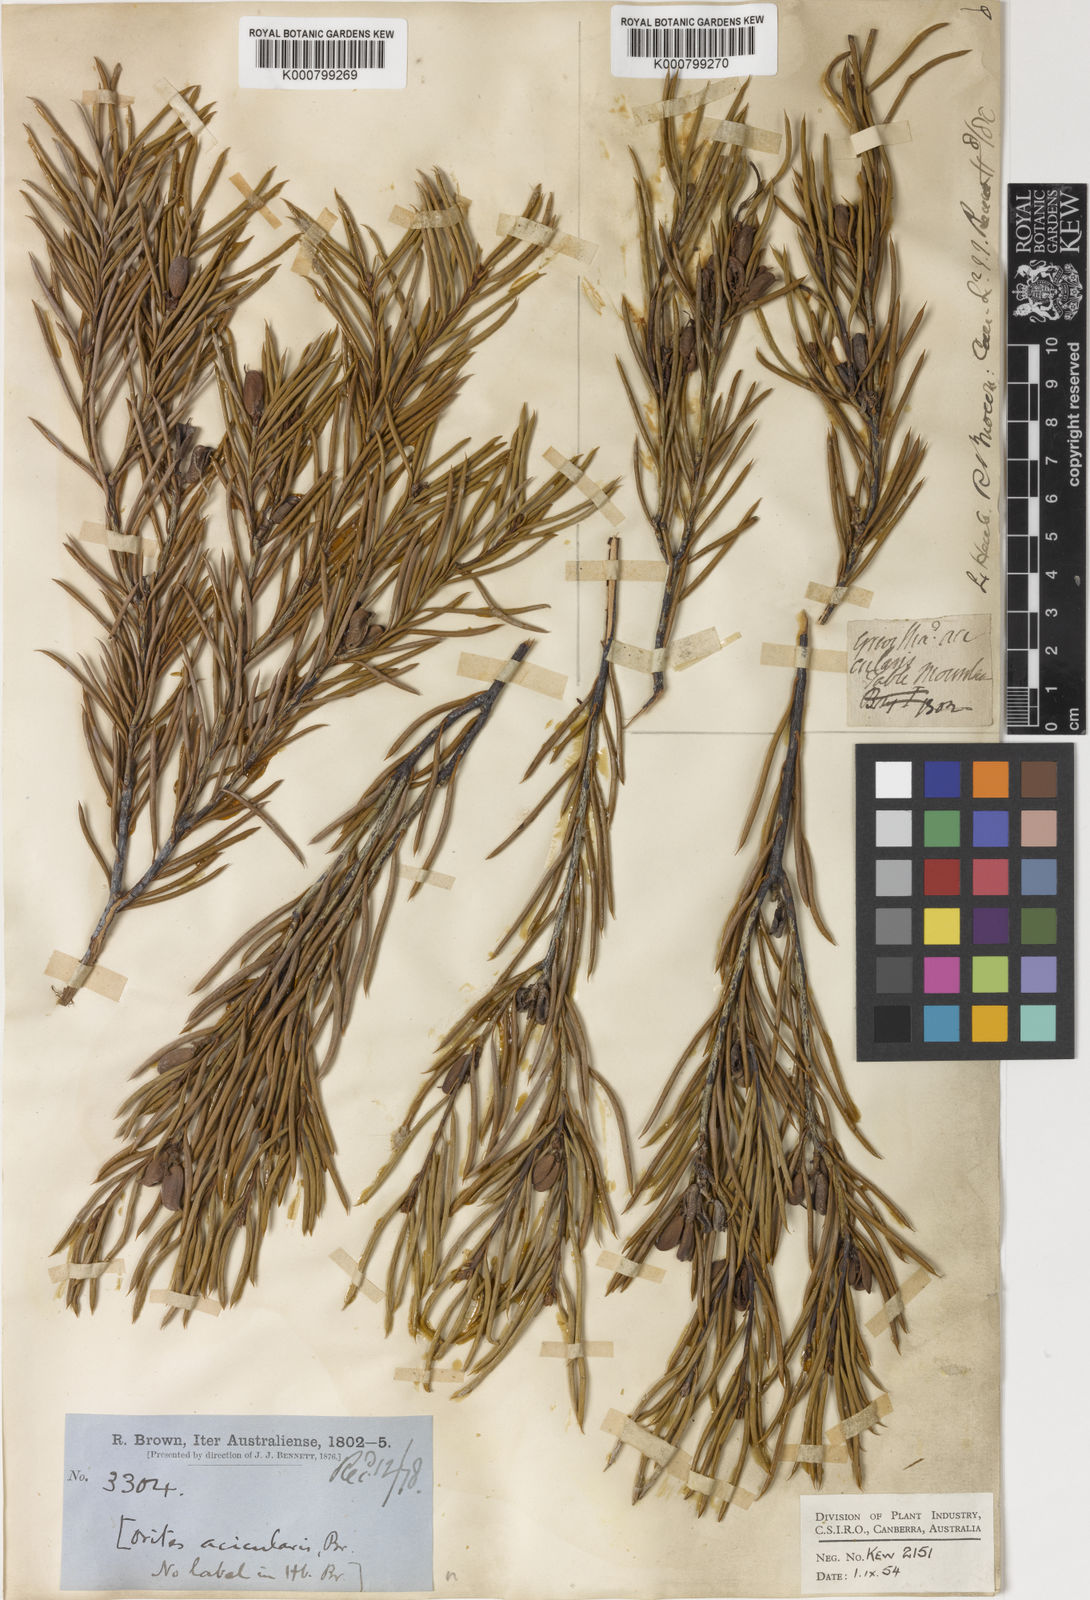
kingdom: Plantae
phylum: Tracheophyta
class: Magnoliopsida
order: Proteales
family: Proteaceae
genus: Orites
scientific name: Orites acicularis
